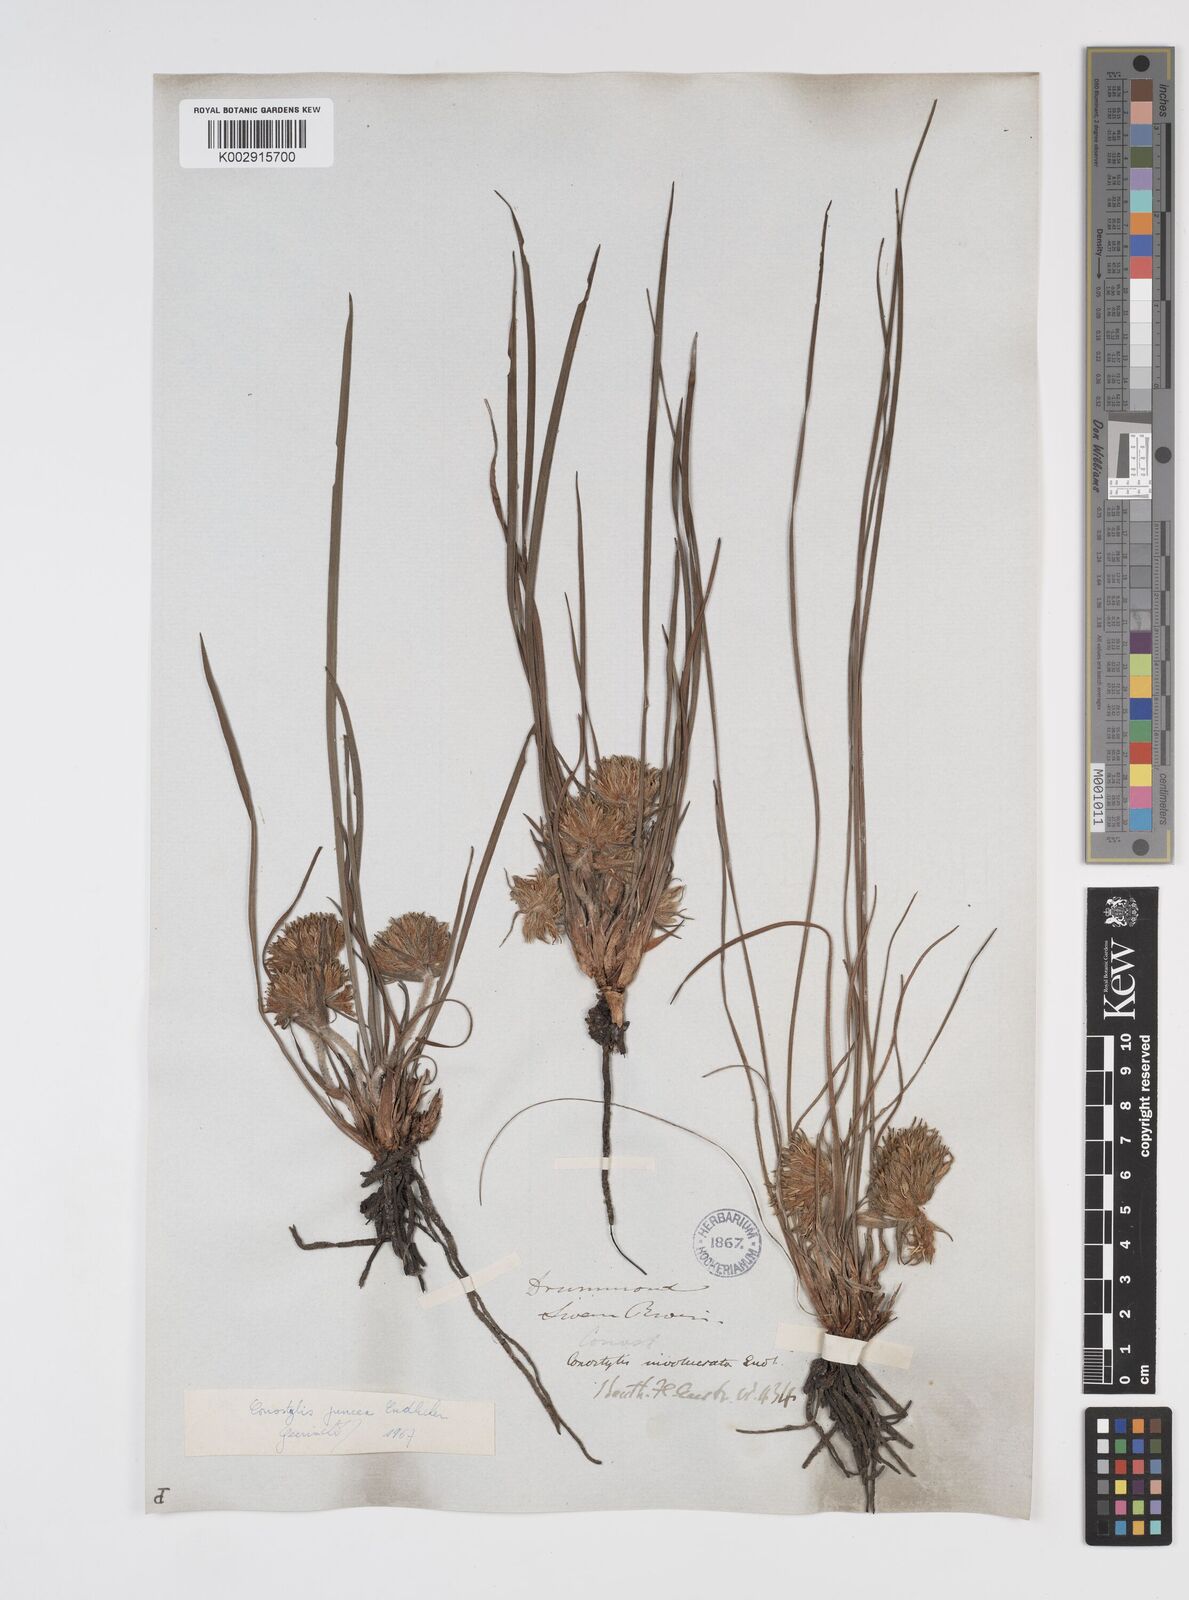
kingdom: Plantae
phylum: Tracheophyta
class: Liliopsida
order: Commelinales
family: Haemodoraceae
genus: Conostylis
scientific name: Conostylis juncea
